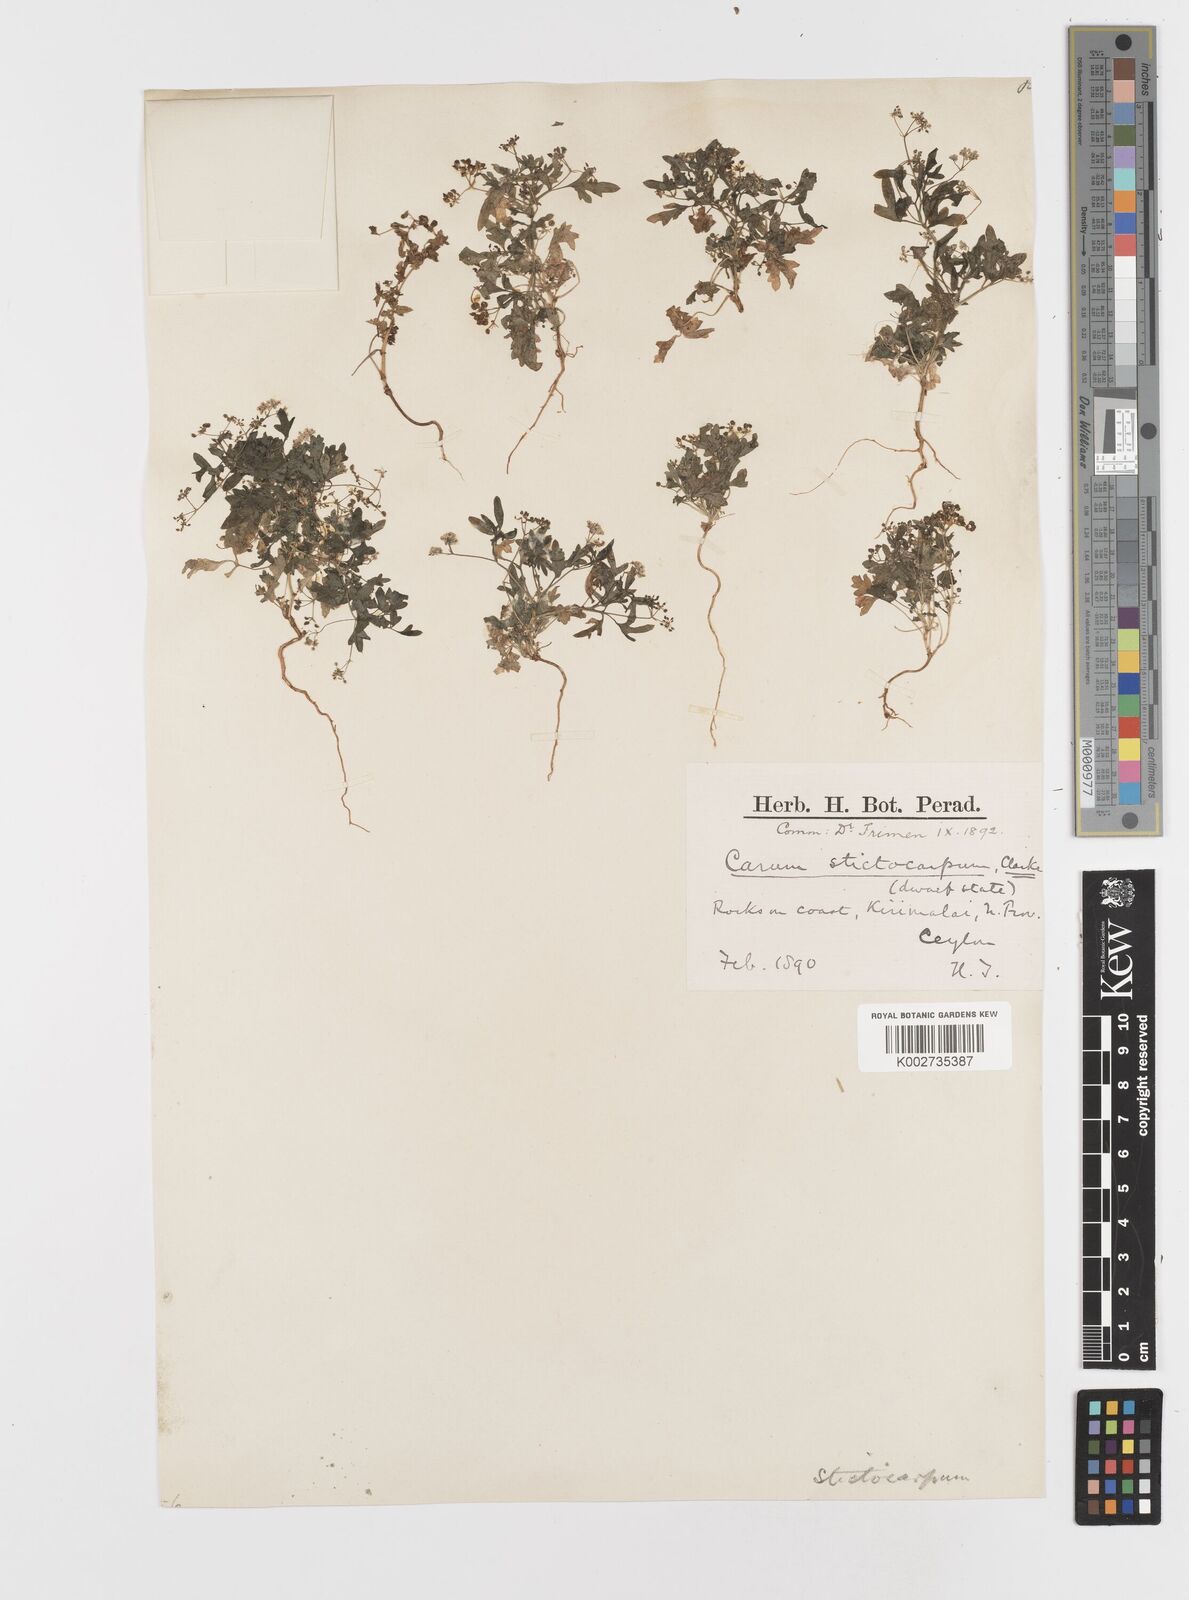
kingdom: Plantae
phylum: Tracheophyta
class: Magnoliopsida
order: Apiales
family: Apiaceae
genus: Psammogeton
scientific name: Psammogeton involucratum
